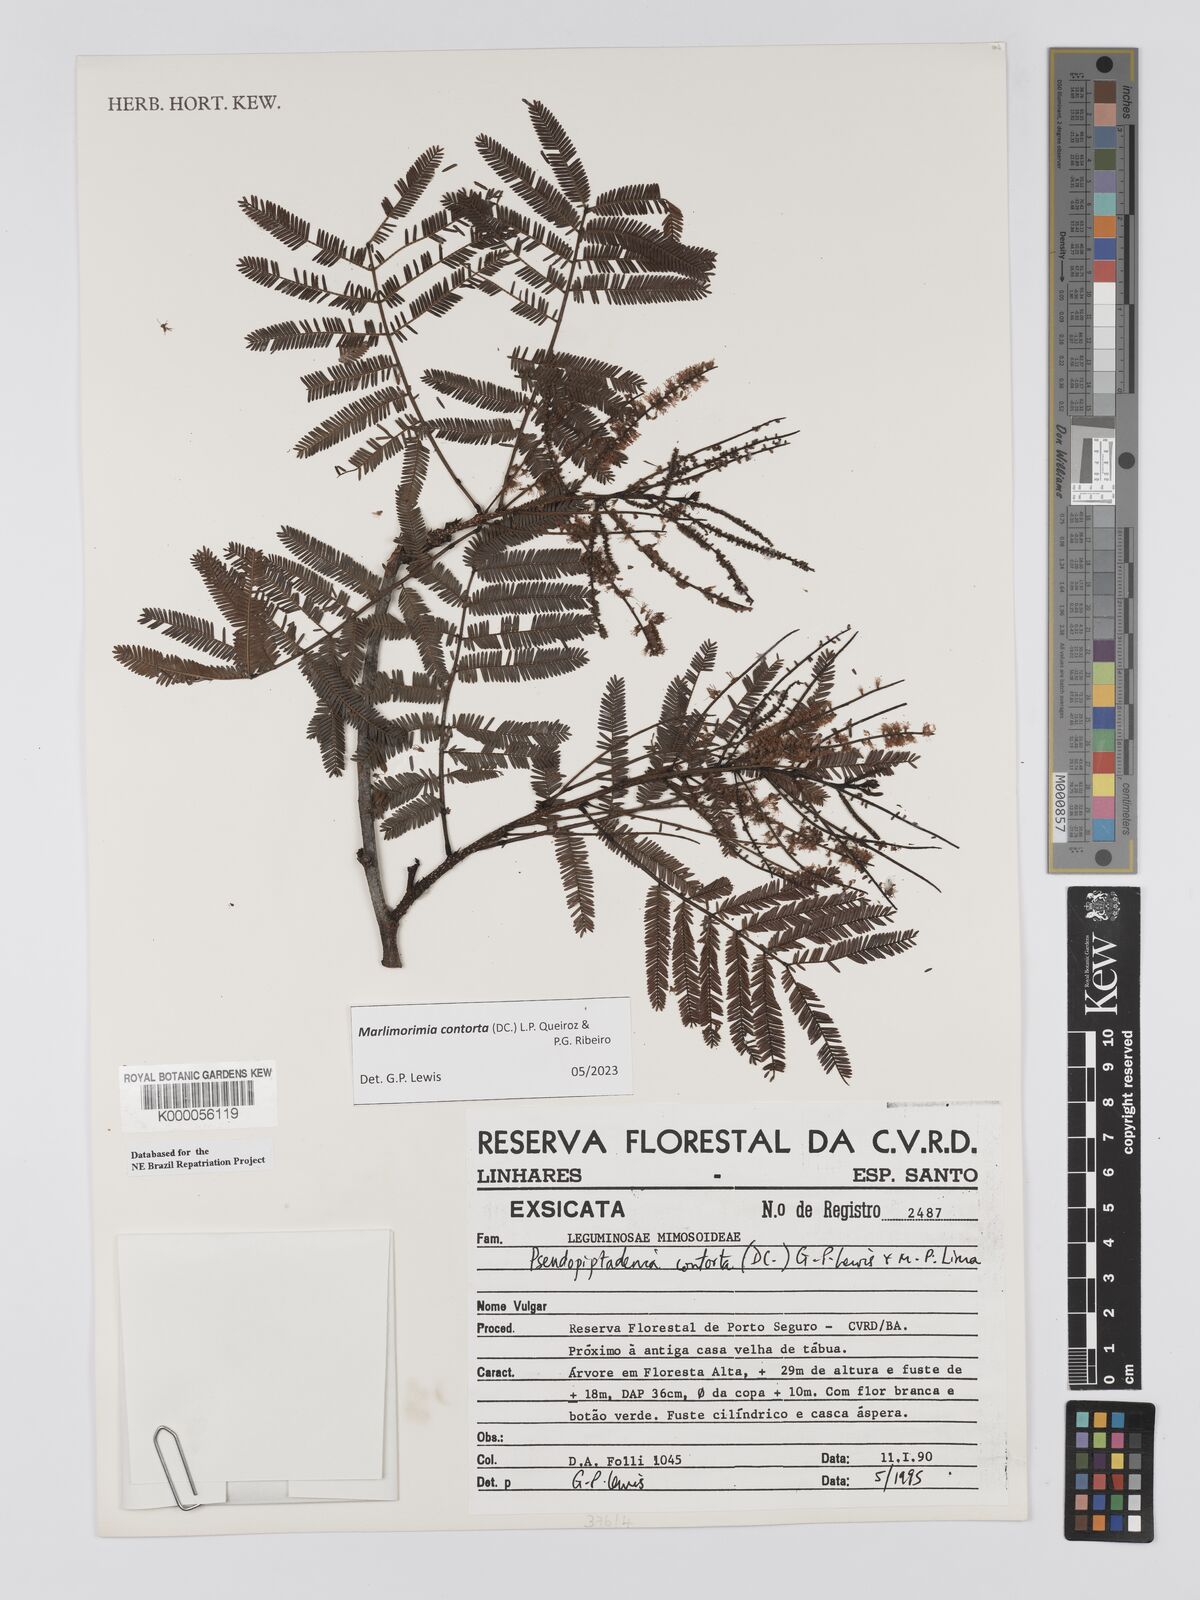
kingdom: Plantae
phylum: Tracheophyta
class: Magnoliopsida
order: Fabales
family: Fabaceae
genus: Pseudopiptadenia
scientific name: Pseudopiptadenia contorta
